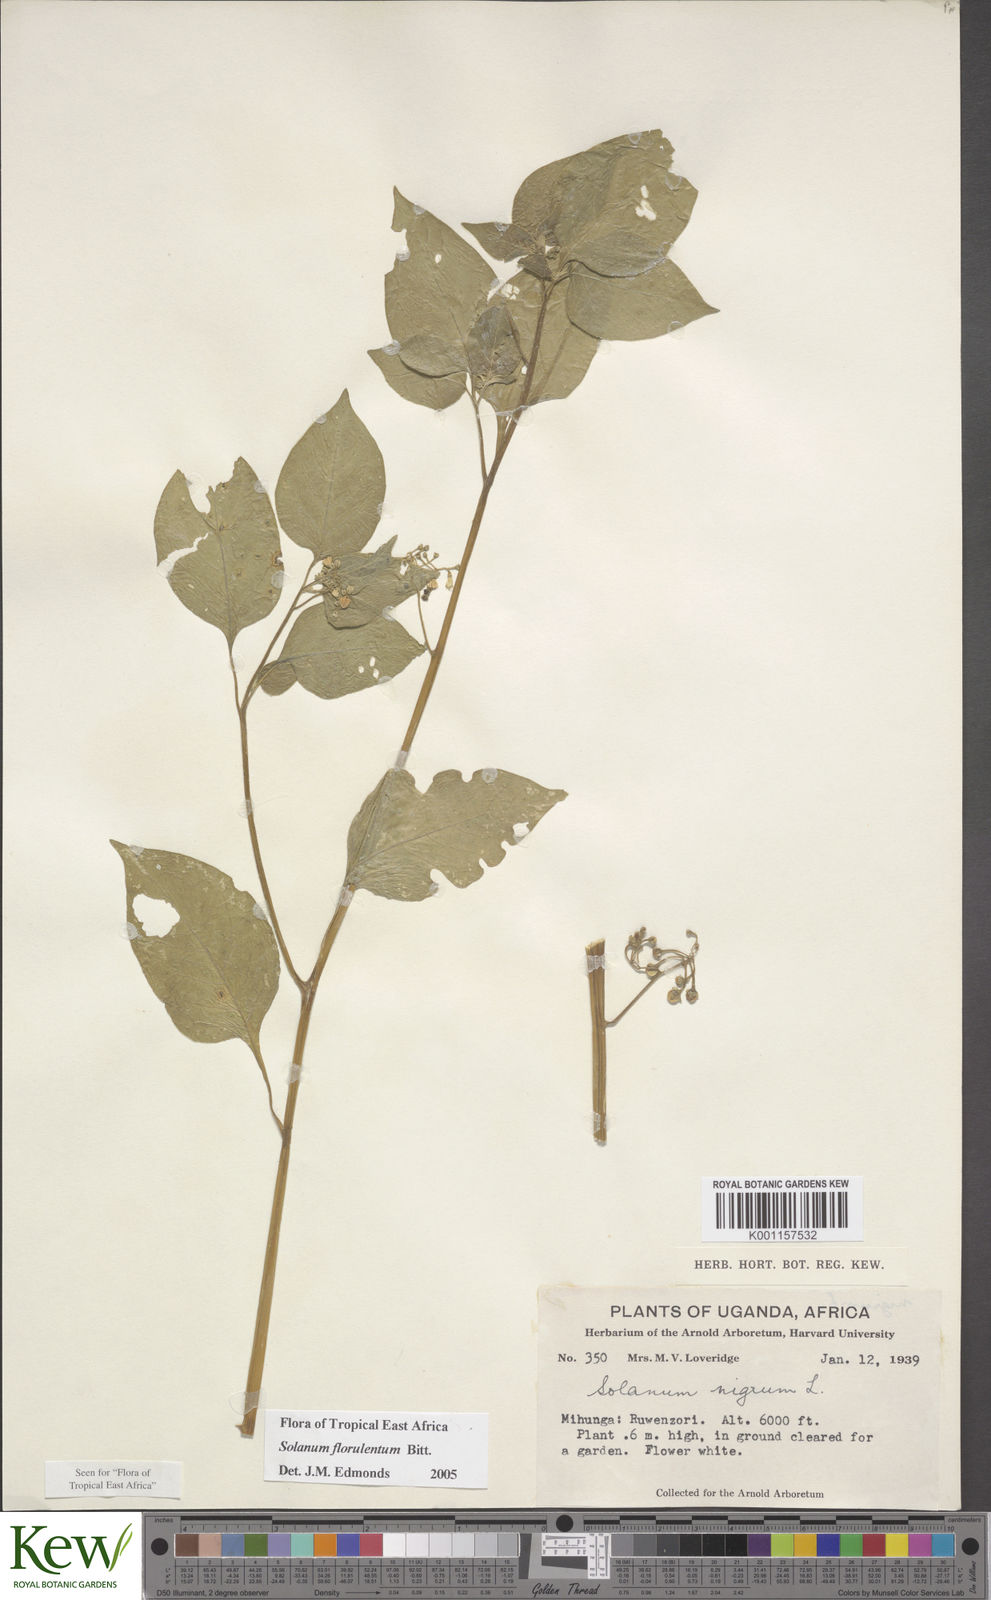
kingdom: Plantae
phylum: Tracheophyta
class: Magnoliopsida
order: Solanales
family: Solanaceae
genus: Solanum
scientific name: Solanum tarderemotum
